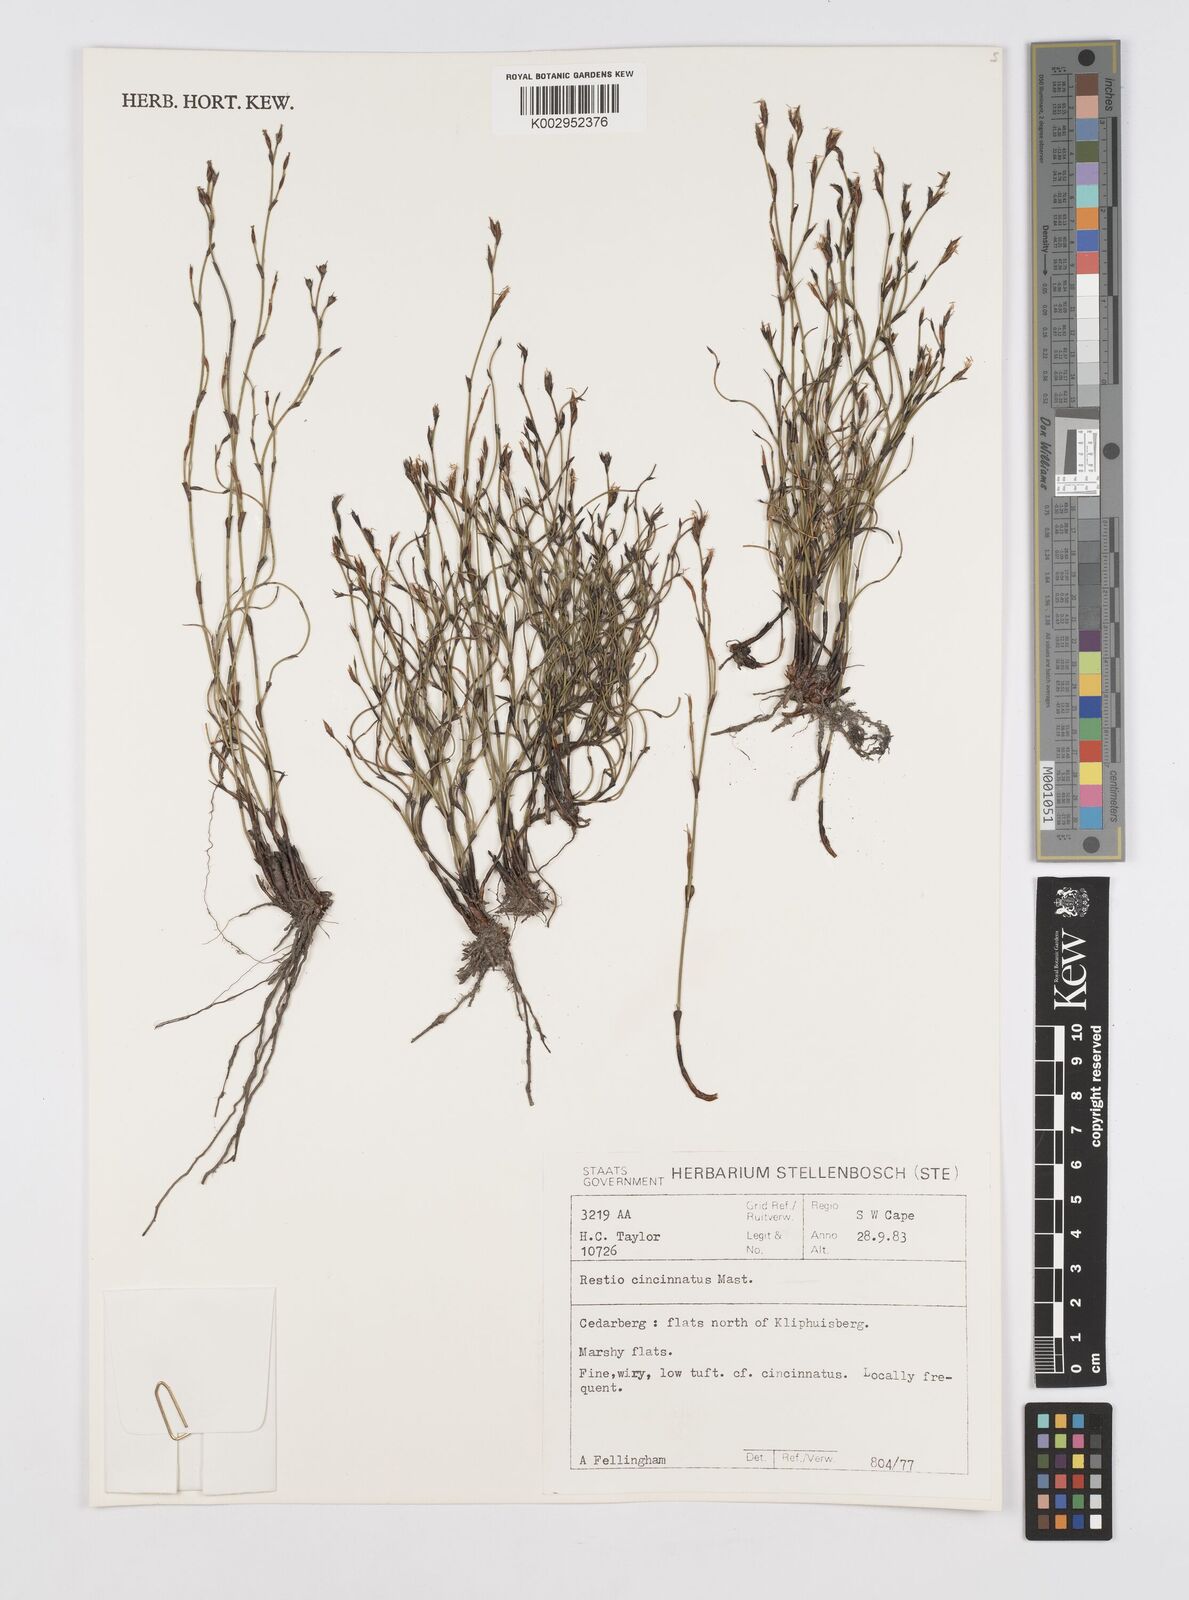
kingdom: Plantae
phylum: Tracheophyta
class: Liliopsida
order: Poales
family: Restionaceae
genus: Restio
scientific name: Restio cincinnatus
